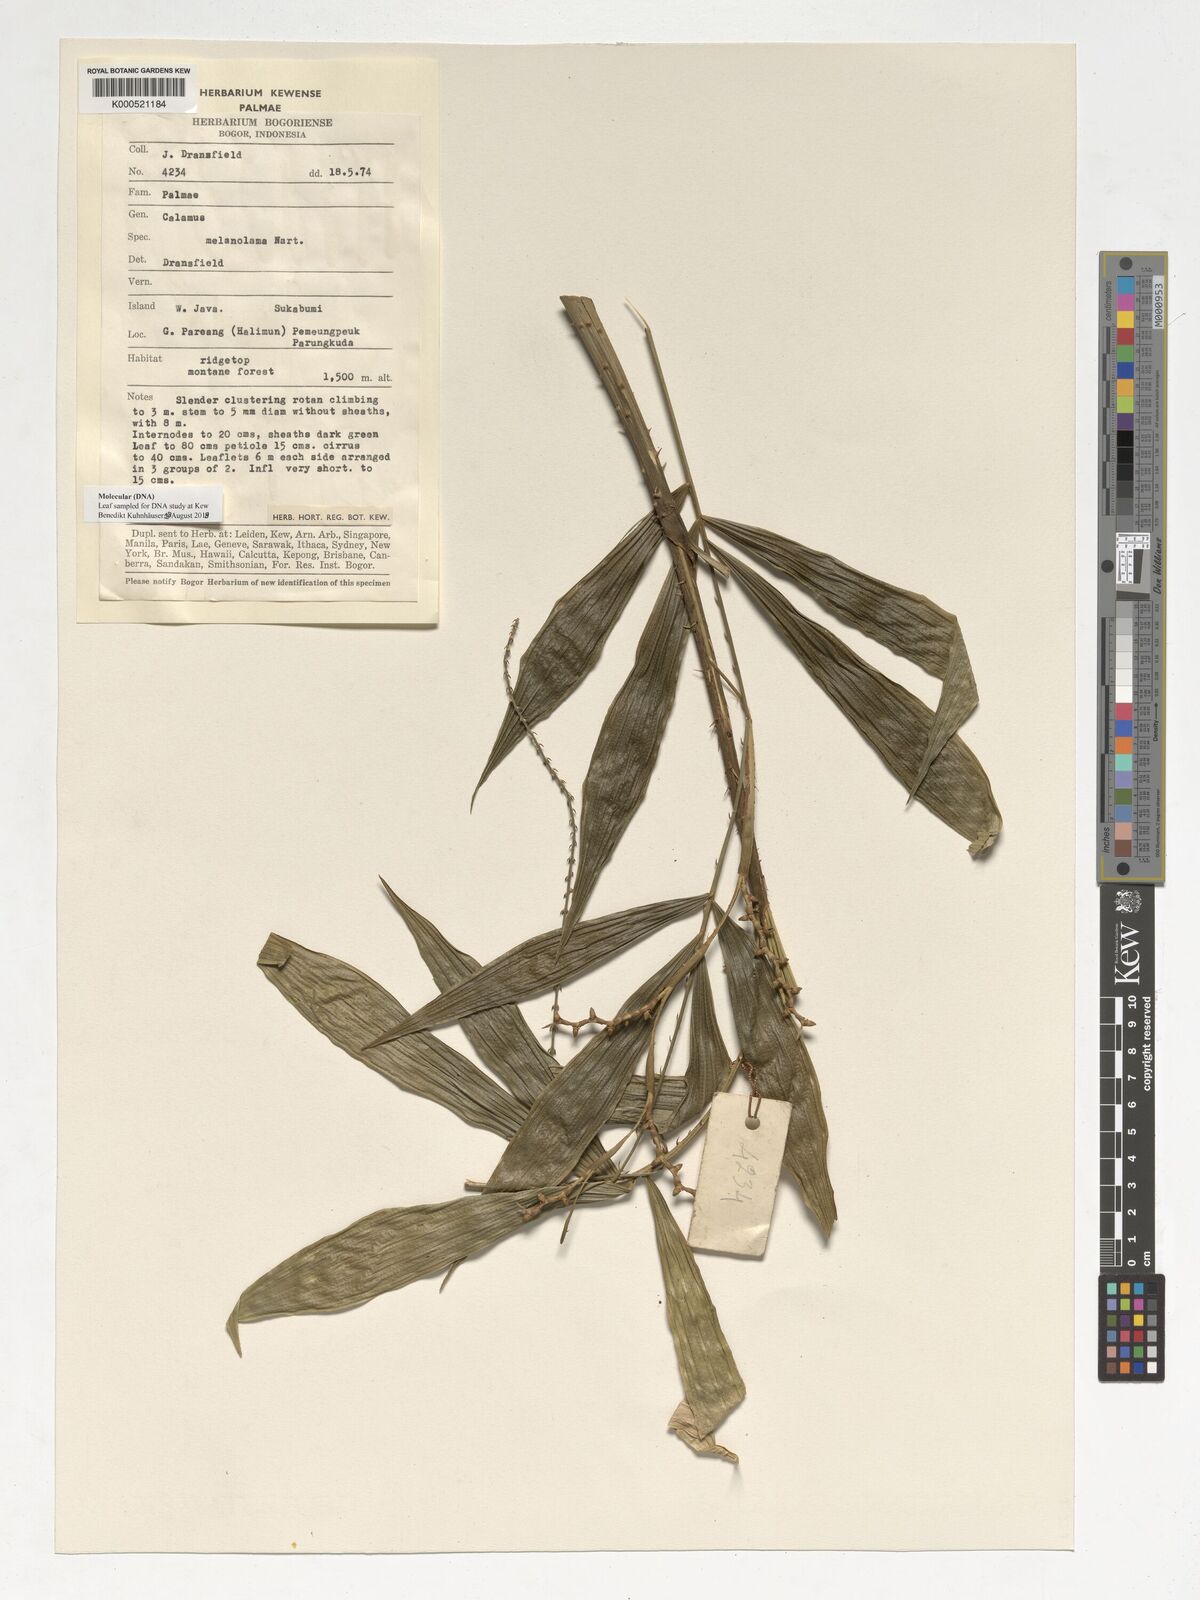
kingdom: Plantae
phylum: Tracheophyta
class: Liliopsida
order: Arecales
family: Arecaceae
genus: Calamus
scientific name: Calamus melanoloma
